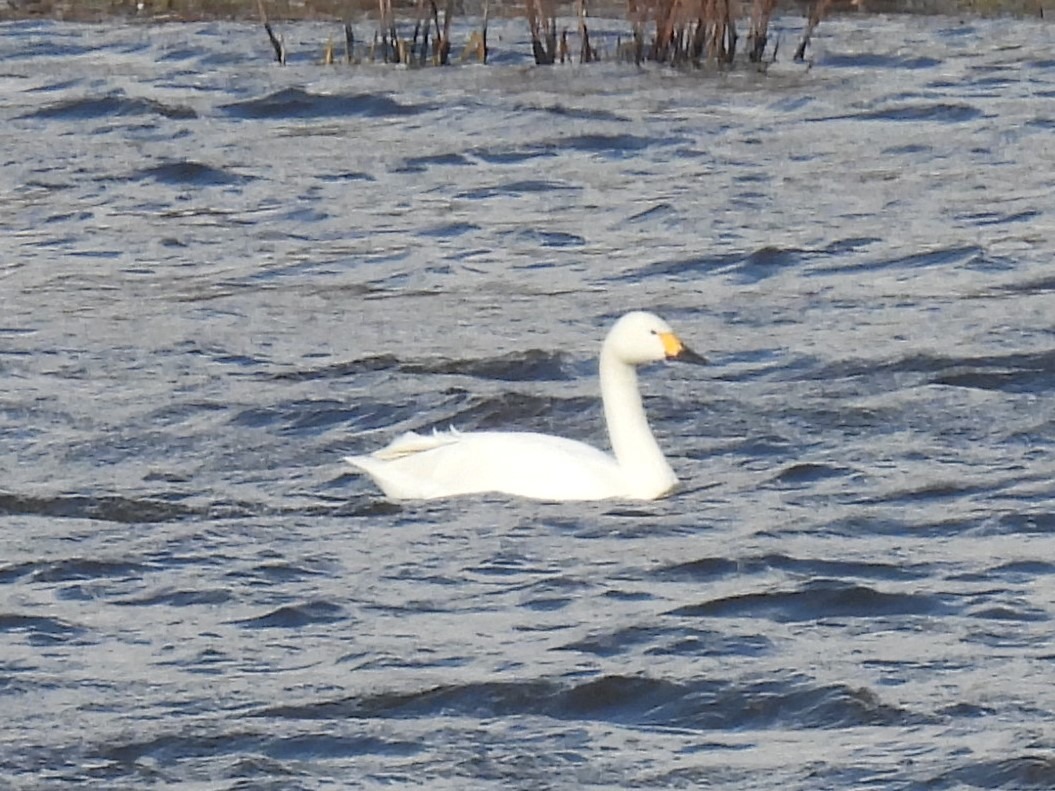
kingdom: Animalia
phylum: Chordata
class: Aves
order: Anseriformes
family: Anatidae
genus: Cygnus
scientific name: Cygnus columbianus
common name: Pibesvane
